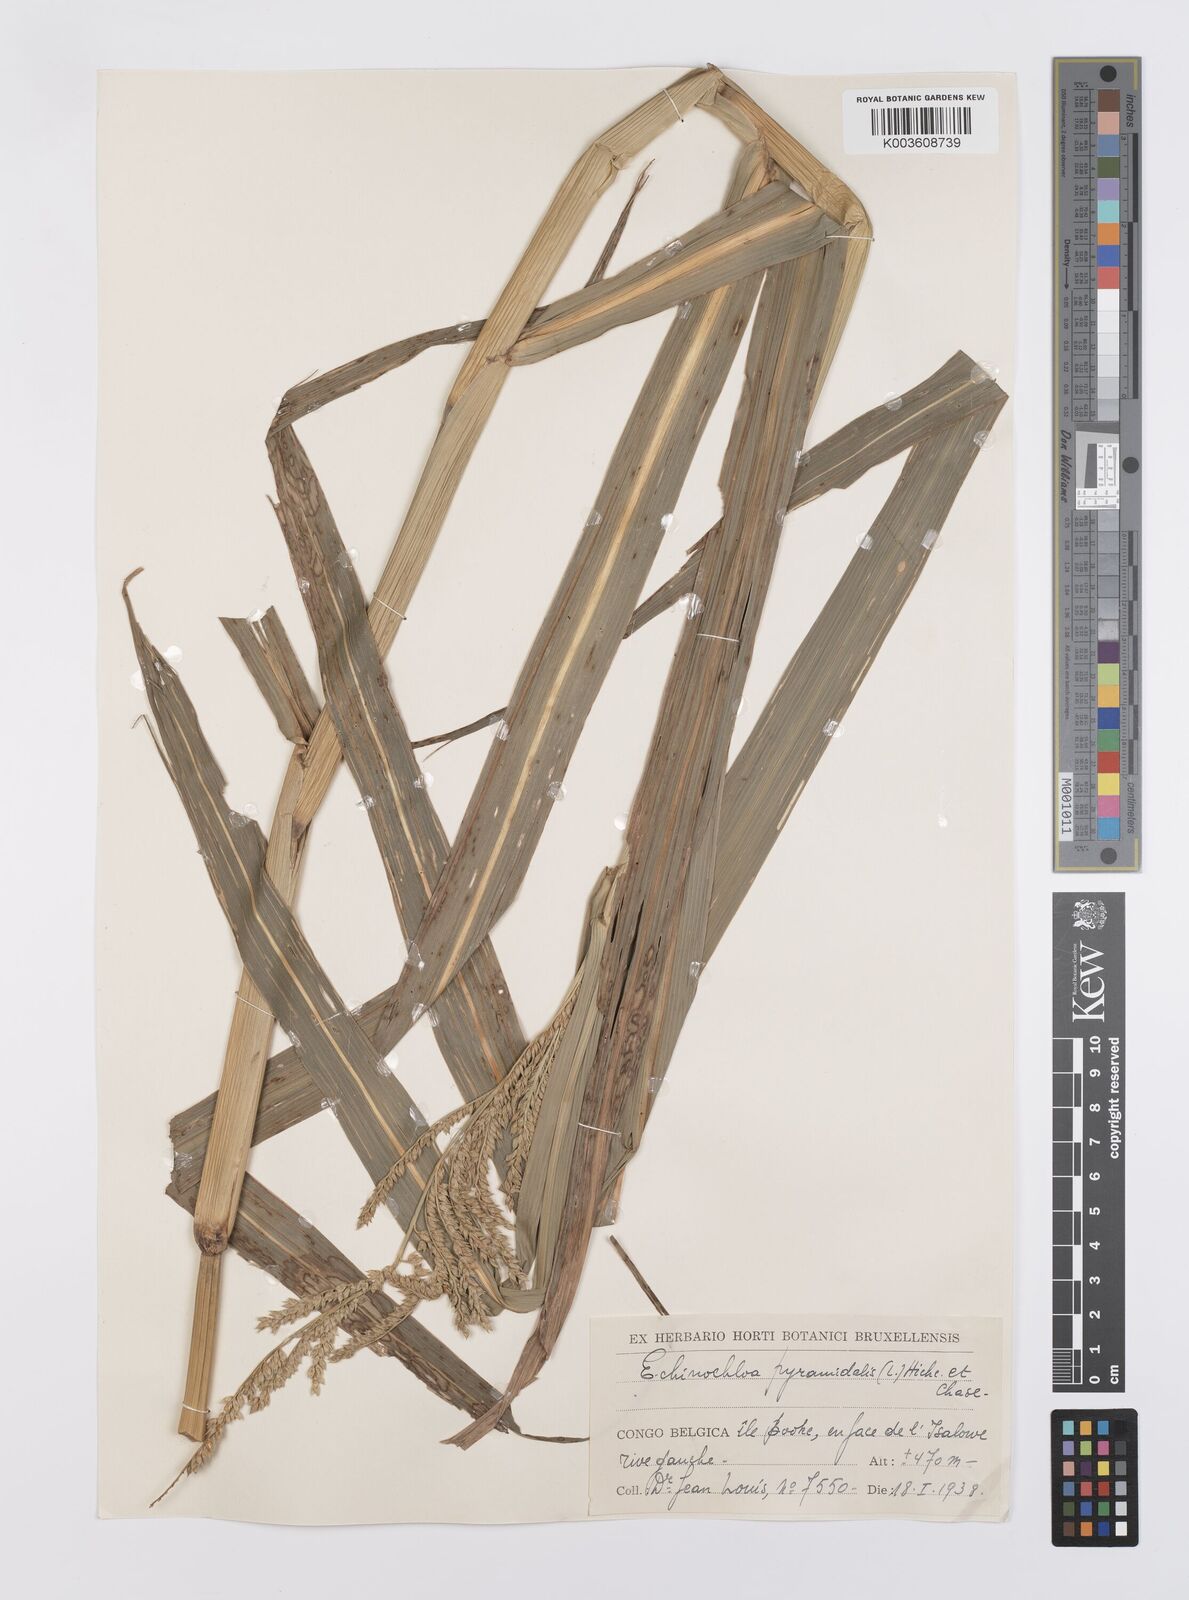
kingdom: Plantae
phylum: Tracheophyta
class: Liliopsida
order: Poales
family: Poaceae
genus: Echinochloa
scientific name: Echinochloa pyramidalis
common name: Antelope grass
